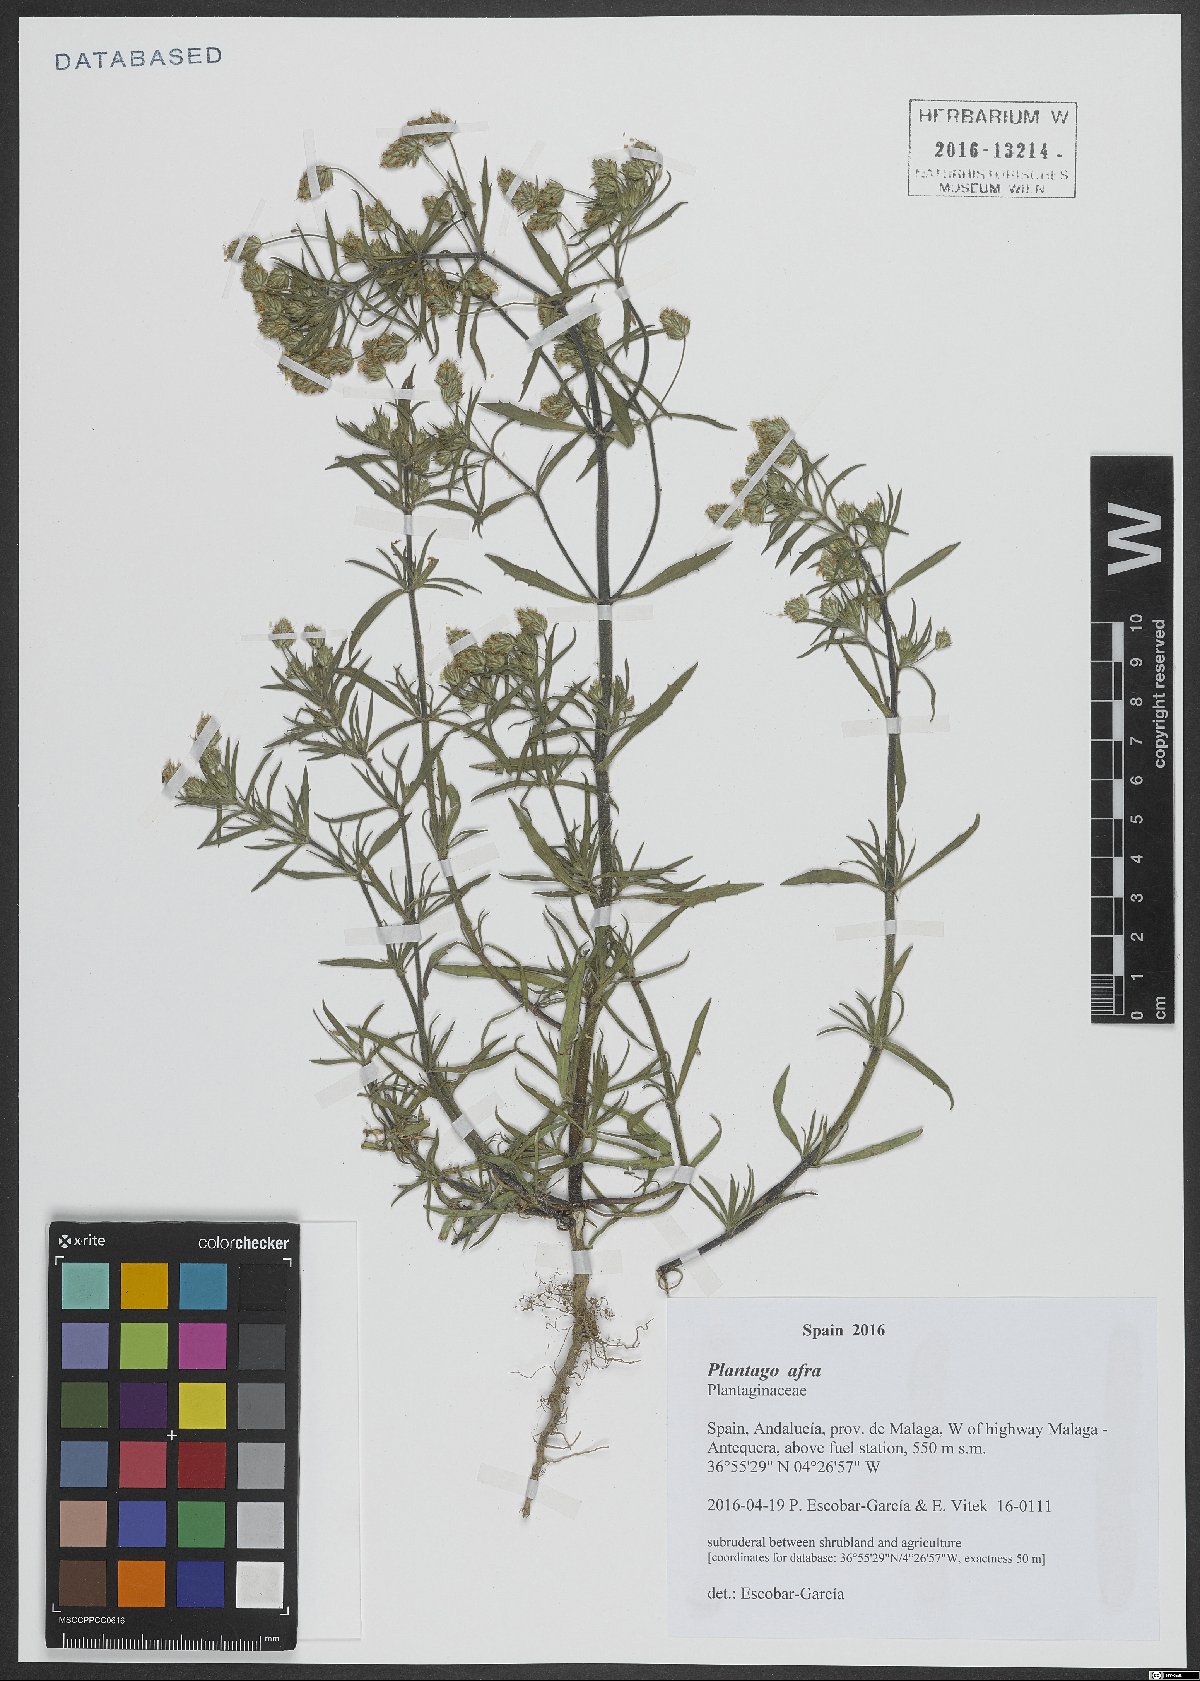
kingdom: Plantae
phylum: Tracheophyta
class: Magnoliopsida
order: Lamiales
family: Plantaginaceae
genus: Plantago
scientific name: Plantago afra
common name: Glandular plantain
